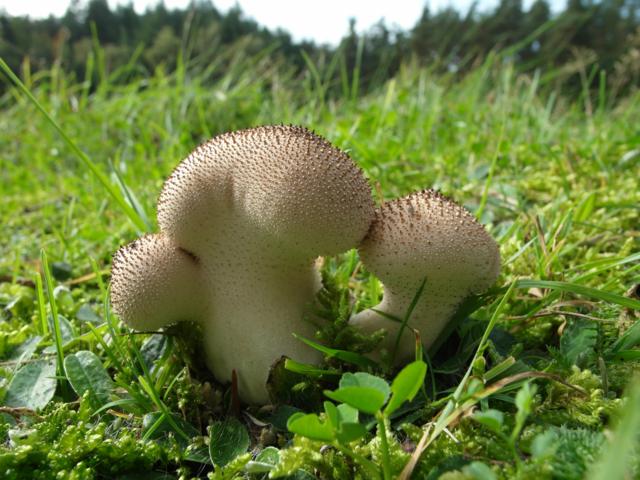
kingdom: Fungi
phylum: Basidiomycota
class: Agaricomycetes
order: Agaricales
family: Lycoperdaceae
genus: Lycoperdon
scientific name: Lycoperdon nigrescens
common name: sortagtig støvbold
